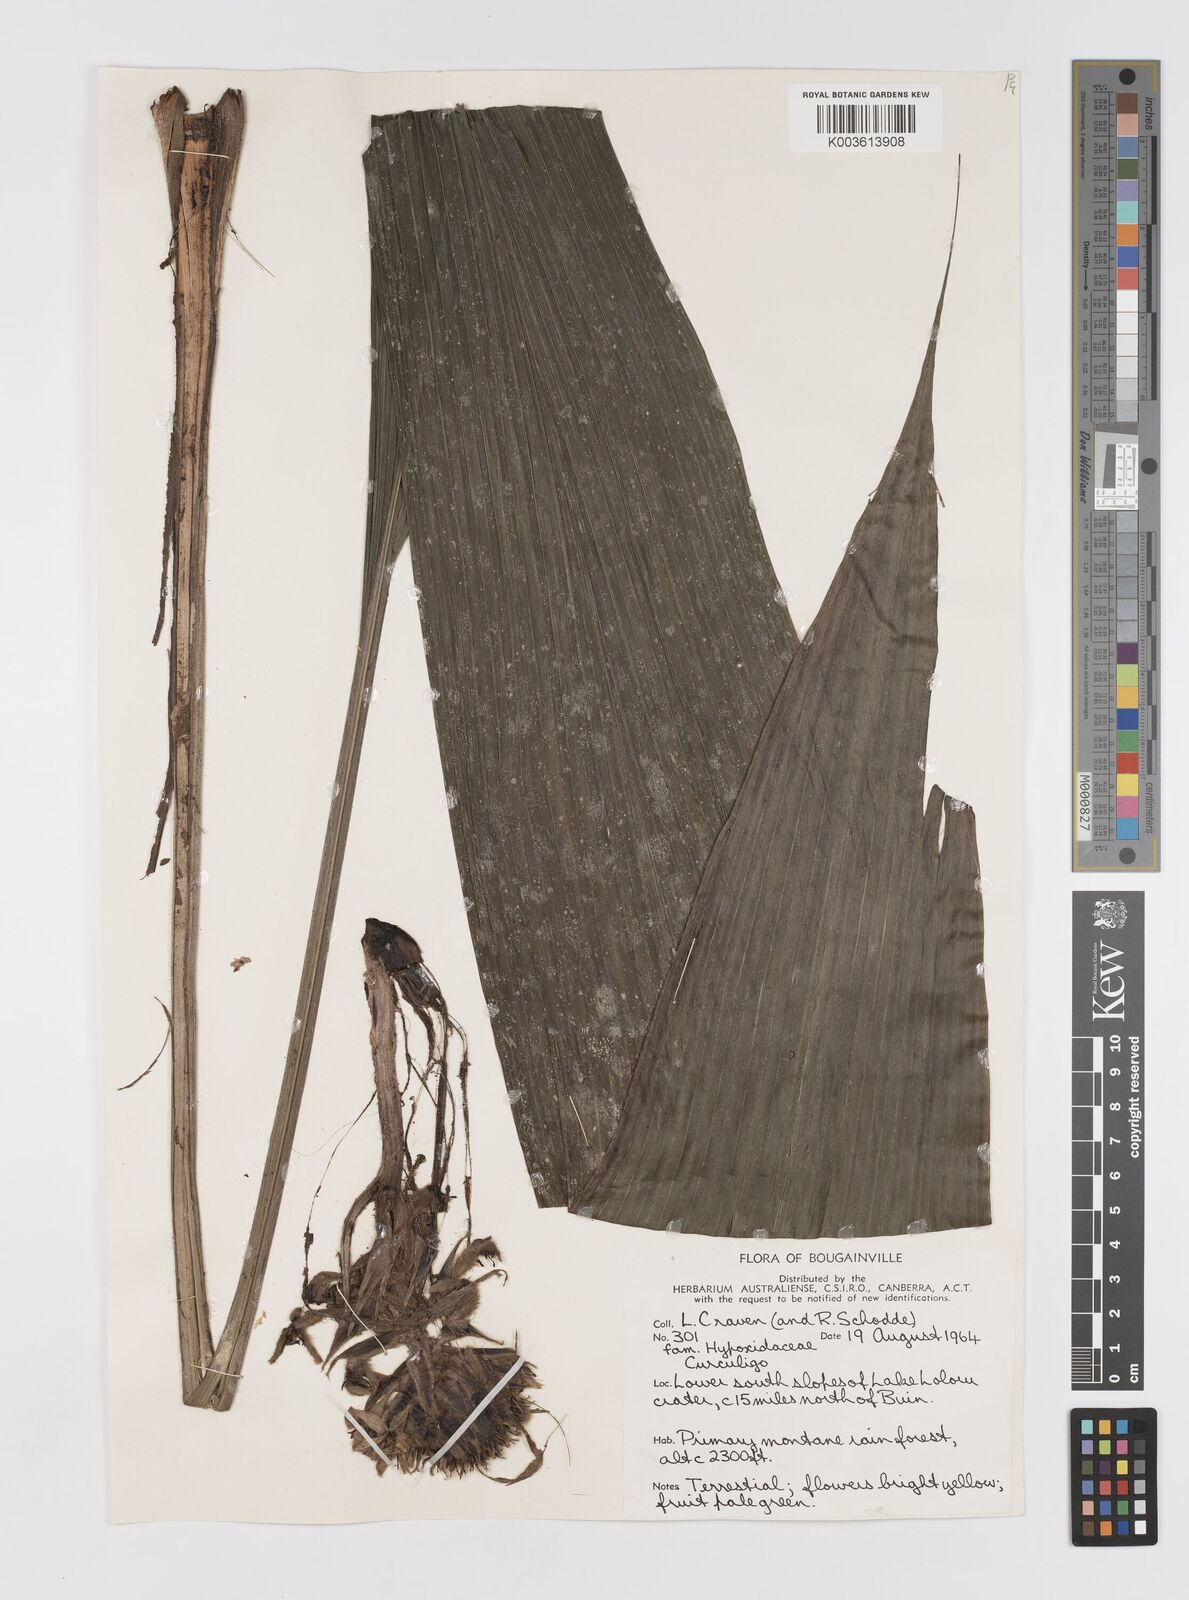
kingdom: Plantae
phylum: Tracheophyta
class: Liliopsida
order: Asparagales
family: Hypoxidaceae
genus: Curculigo
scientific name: Curculigo
